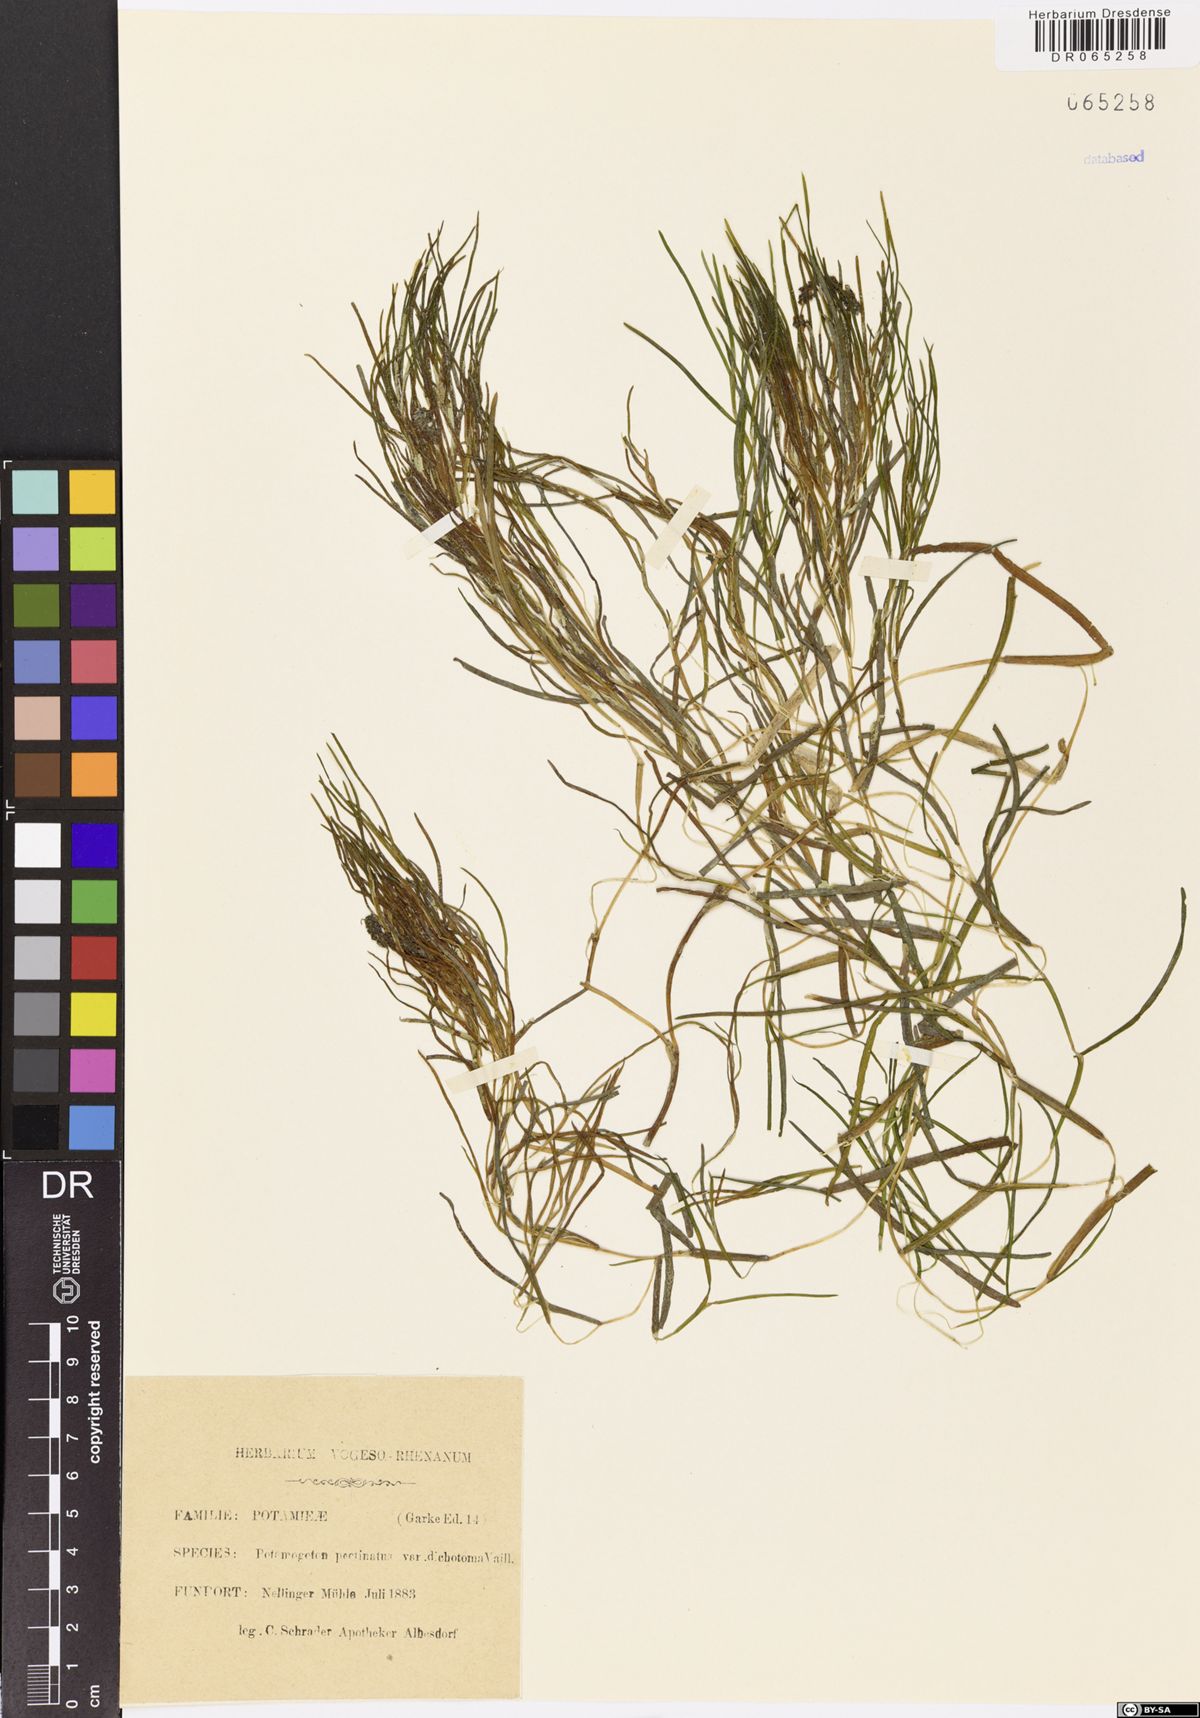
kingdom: Plantae
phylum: Tracheophyta
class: Liliopsida
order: Alismatales
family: Potamogetonaceae
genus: Stuckenia
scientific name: Stuckenia pectinata
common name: Sago pondweed
